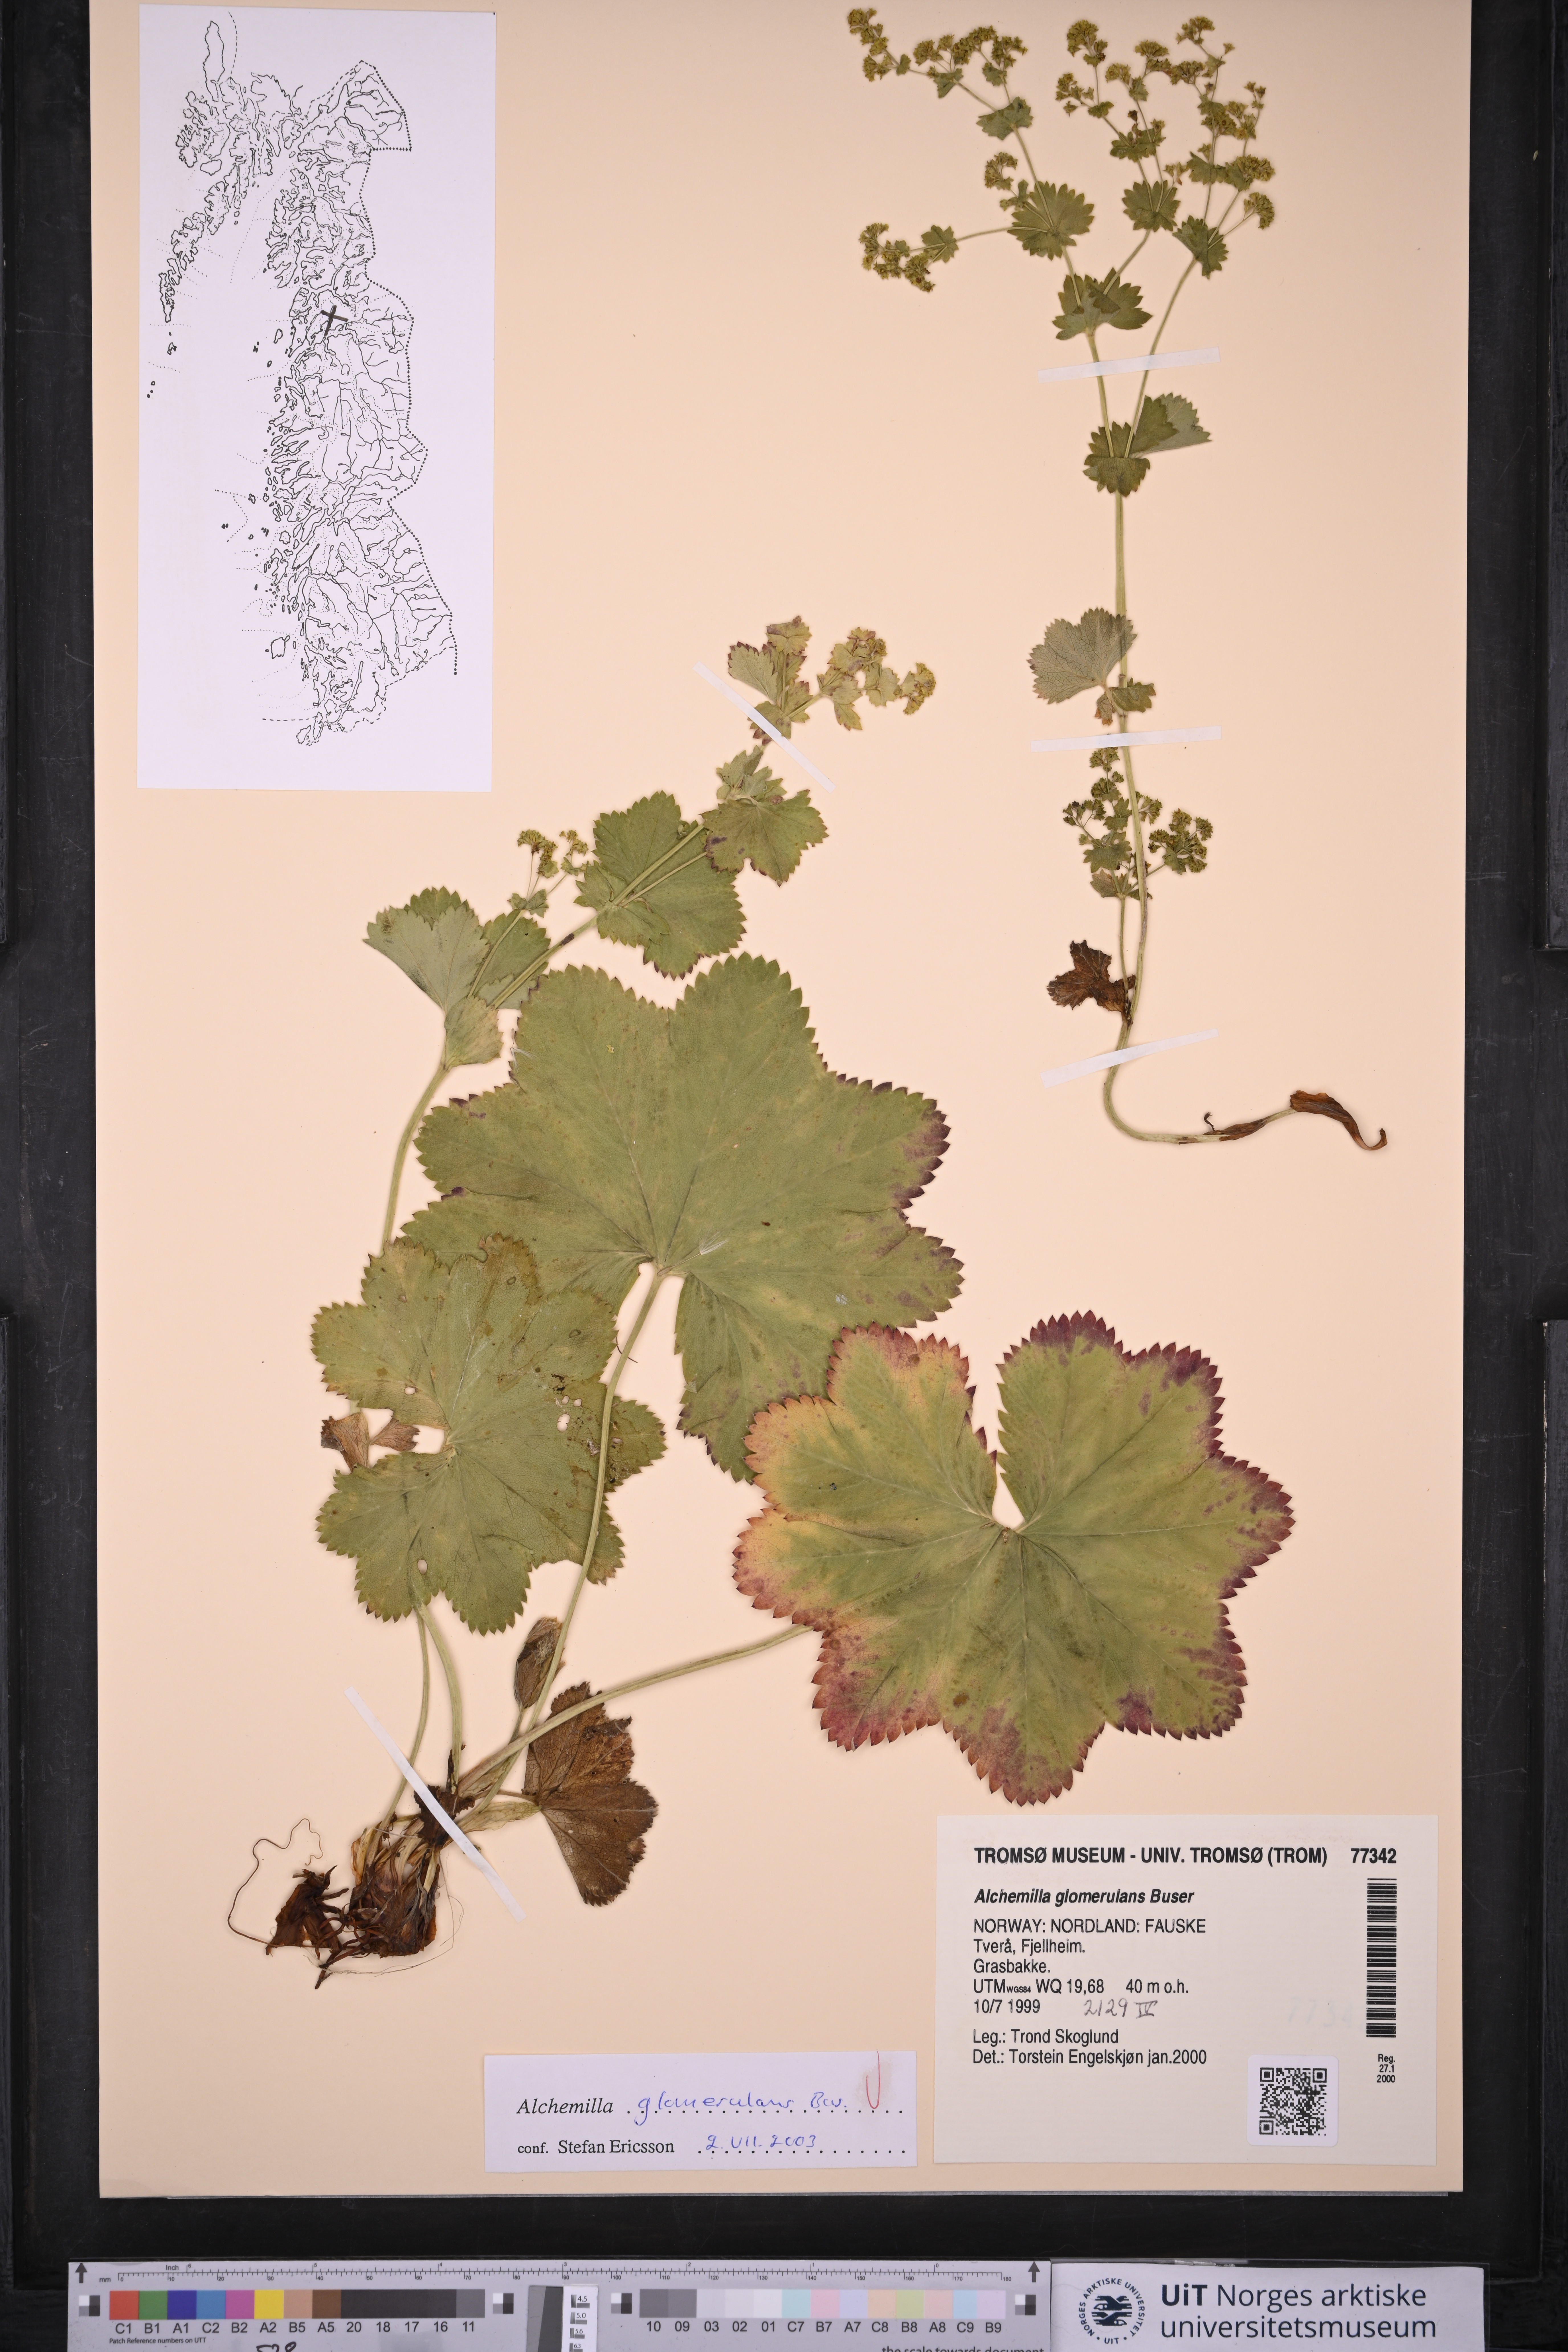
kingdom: Plantae
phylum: Tracheophyta
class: Magnoliopsida
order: Rosales
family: Rosaceae
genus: Alchemilla
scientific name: Alchemilla glomerulans
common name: Clustered lady's mantle
